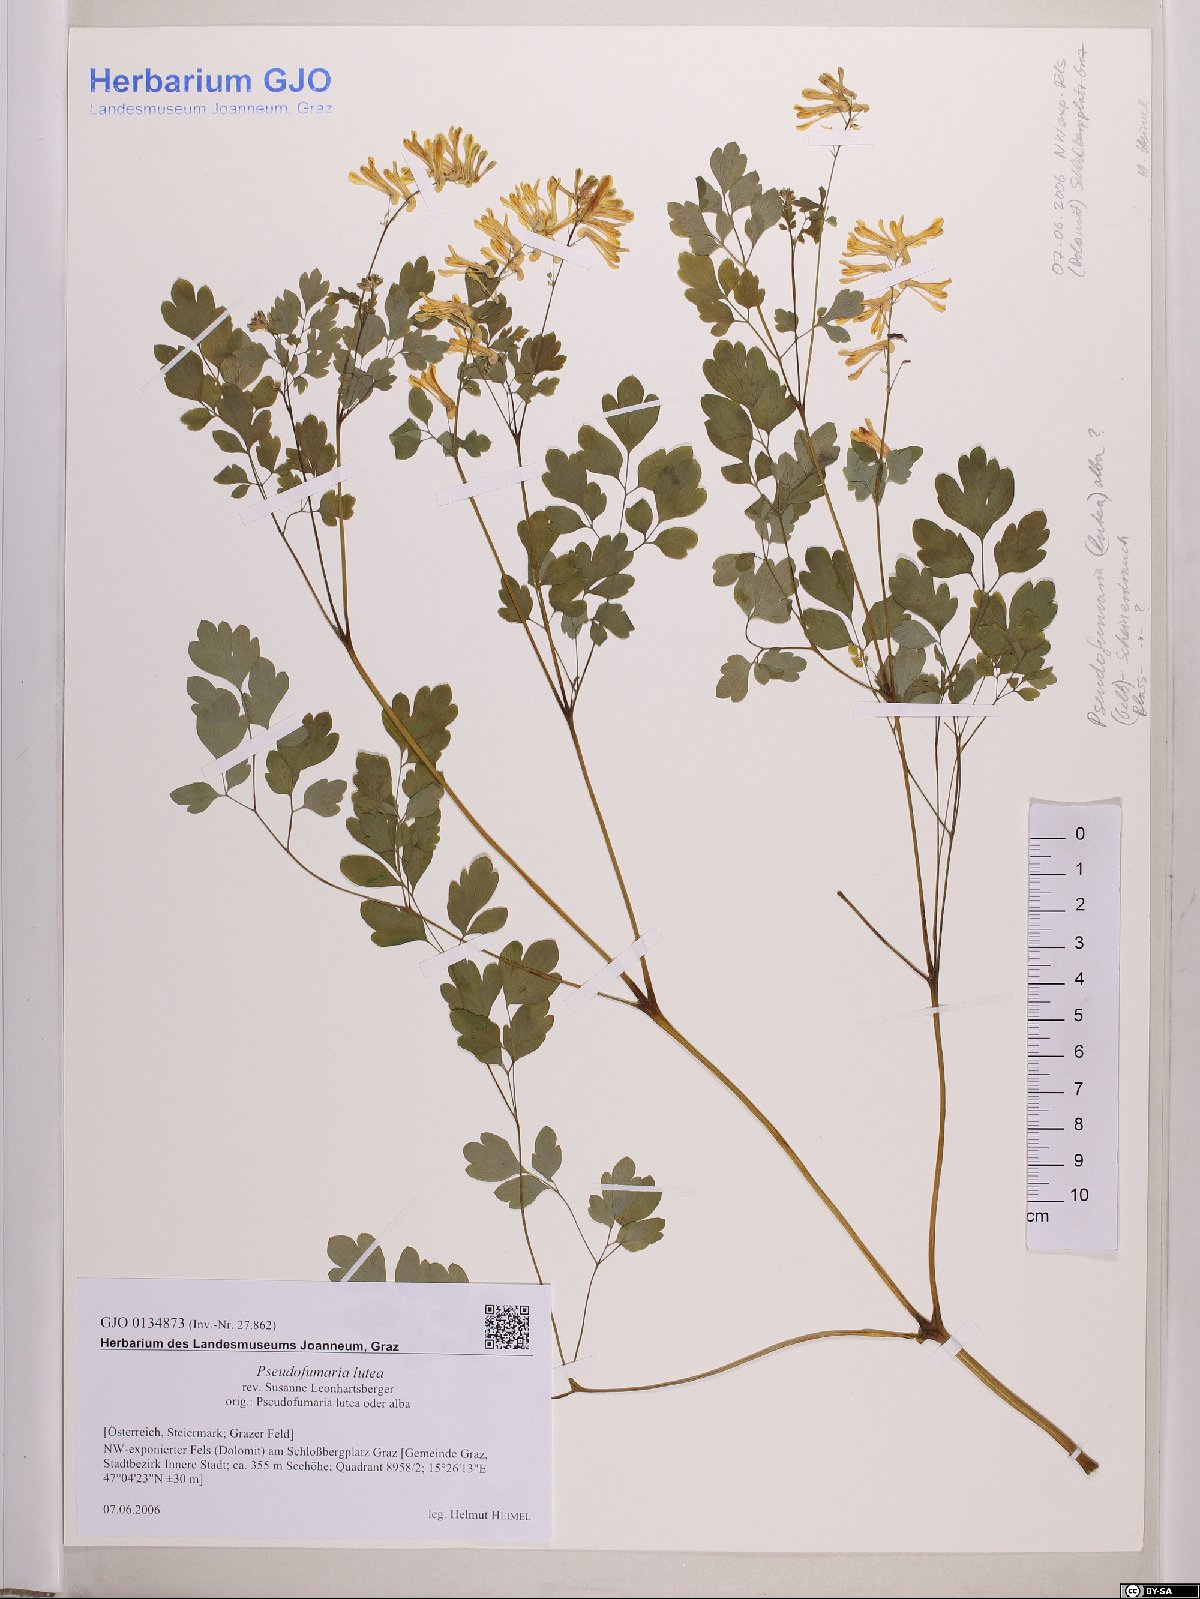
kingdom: Plantae
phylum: Tracheophyta
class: Magnoliopsida
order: Ranunculales
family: Papaveraceae
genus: Pseudofumaria
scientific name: Pseudofumaria lutea
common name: Yellow corydalis
